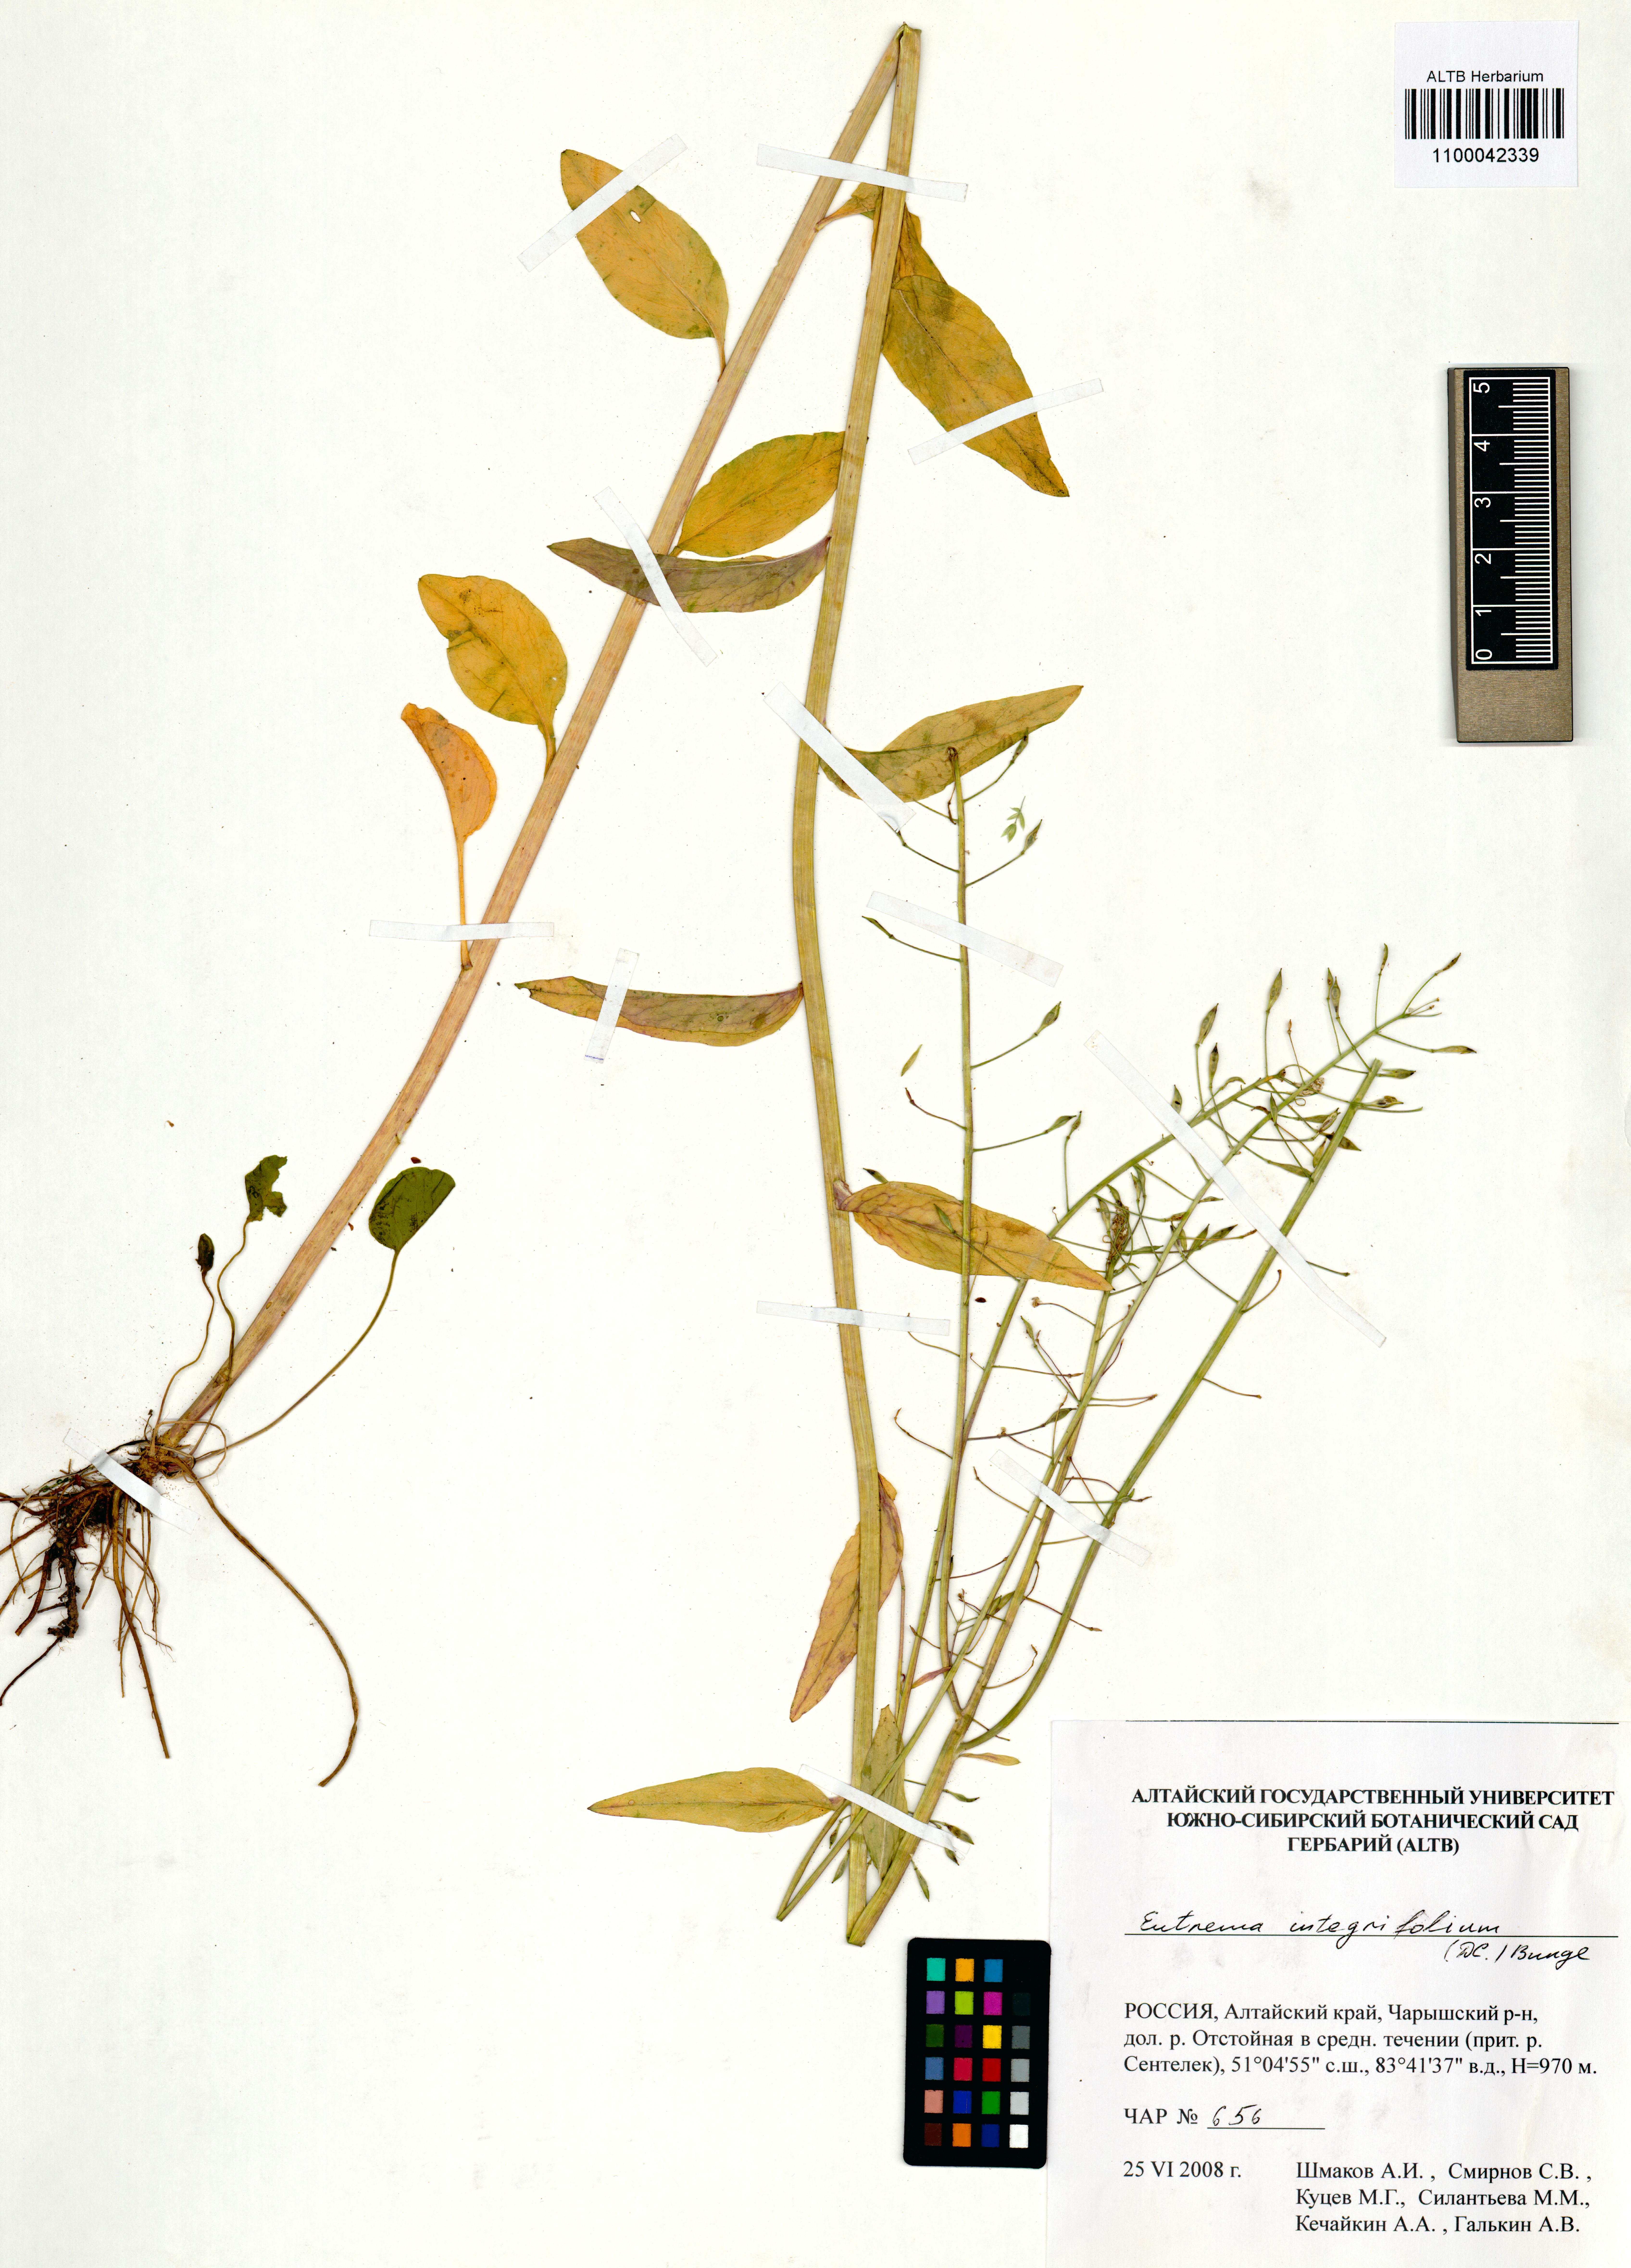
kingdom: Plantae
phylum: Tracheophyta
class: Magnoliopsida
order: Brassicales
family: Brassicaceae
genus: Eutrema
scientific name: Eutrema integrifolium
